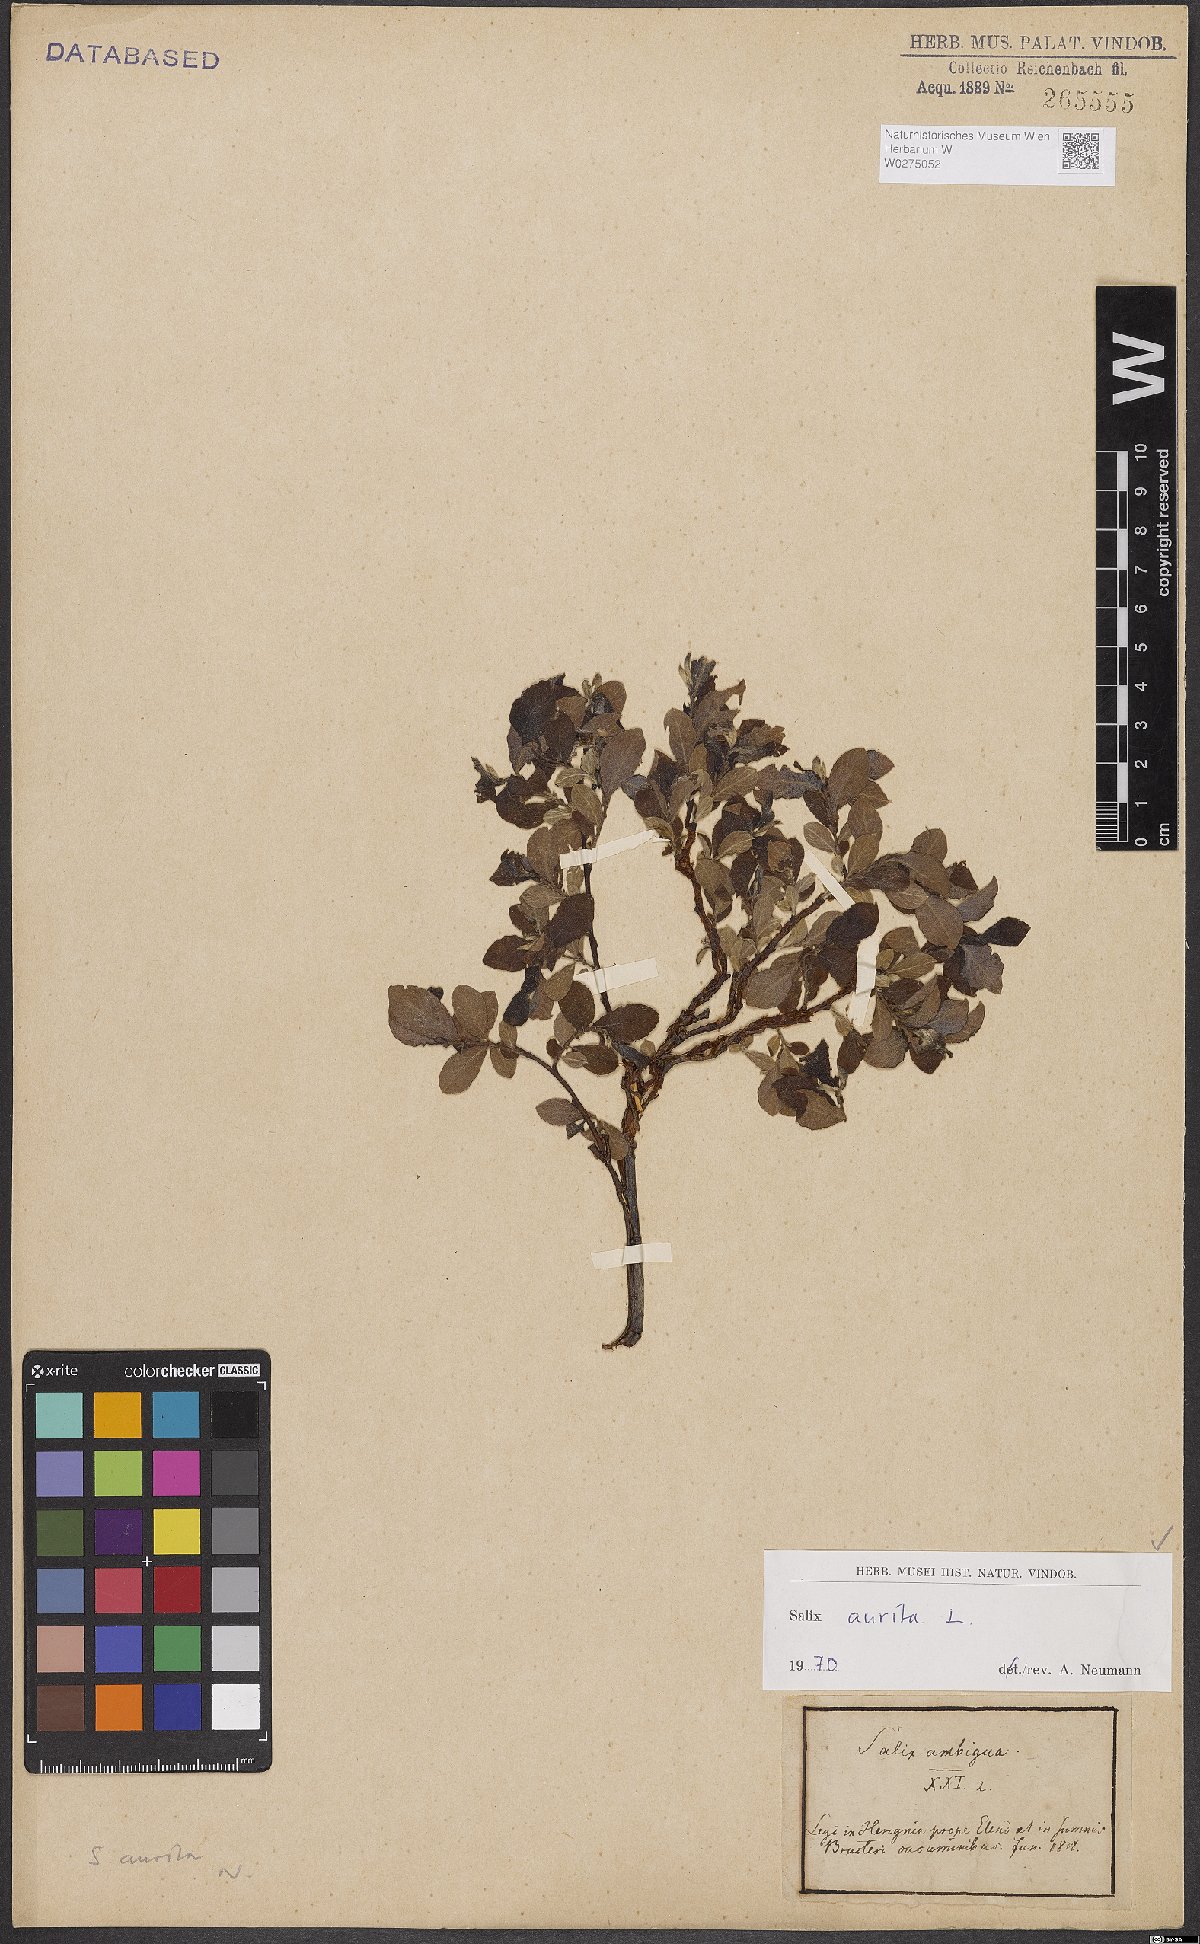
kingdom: Plantae
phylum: Tracheophyta
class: Magnoliopsida
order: Malpighiales
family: Salicaceae
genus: Salix
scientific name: Salix aurita
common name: Eared willow
